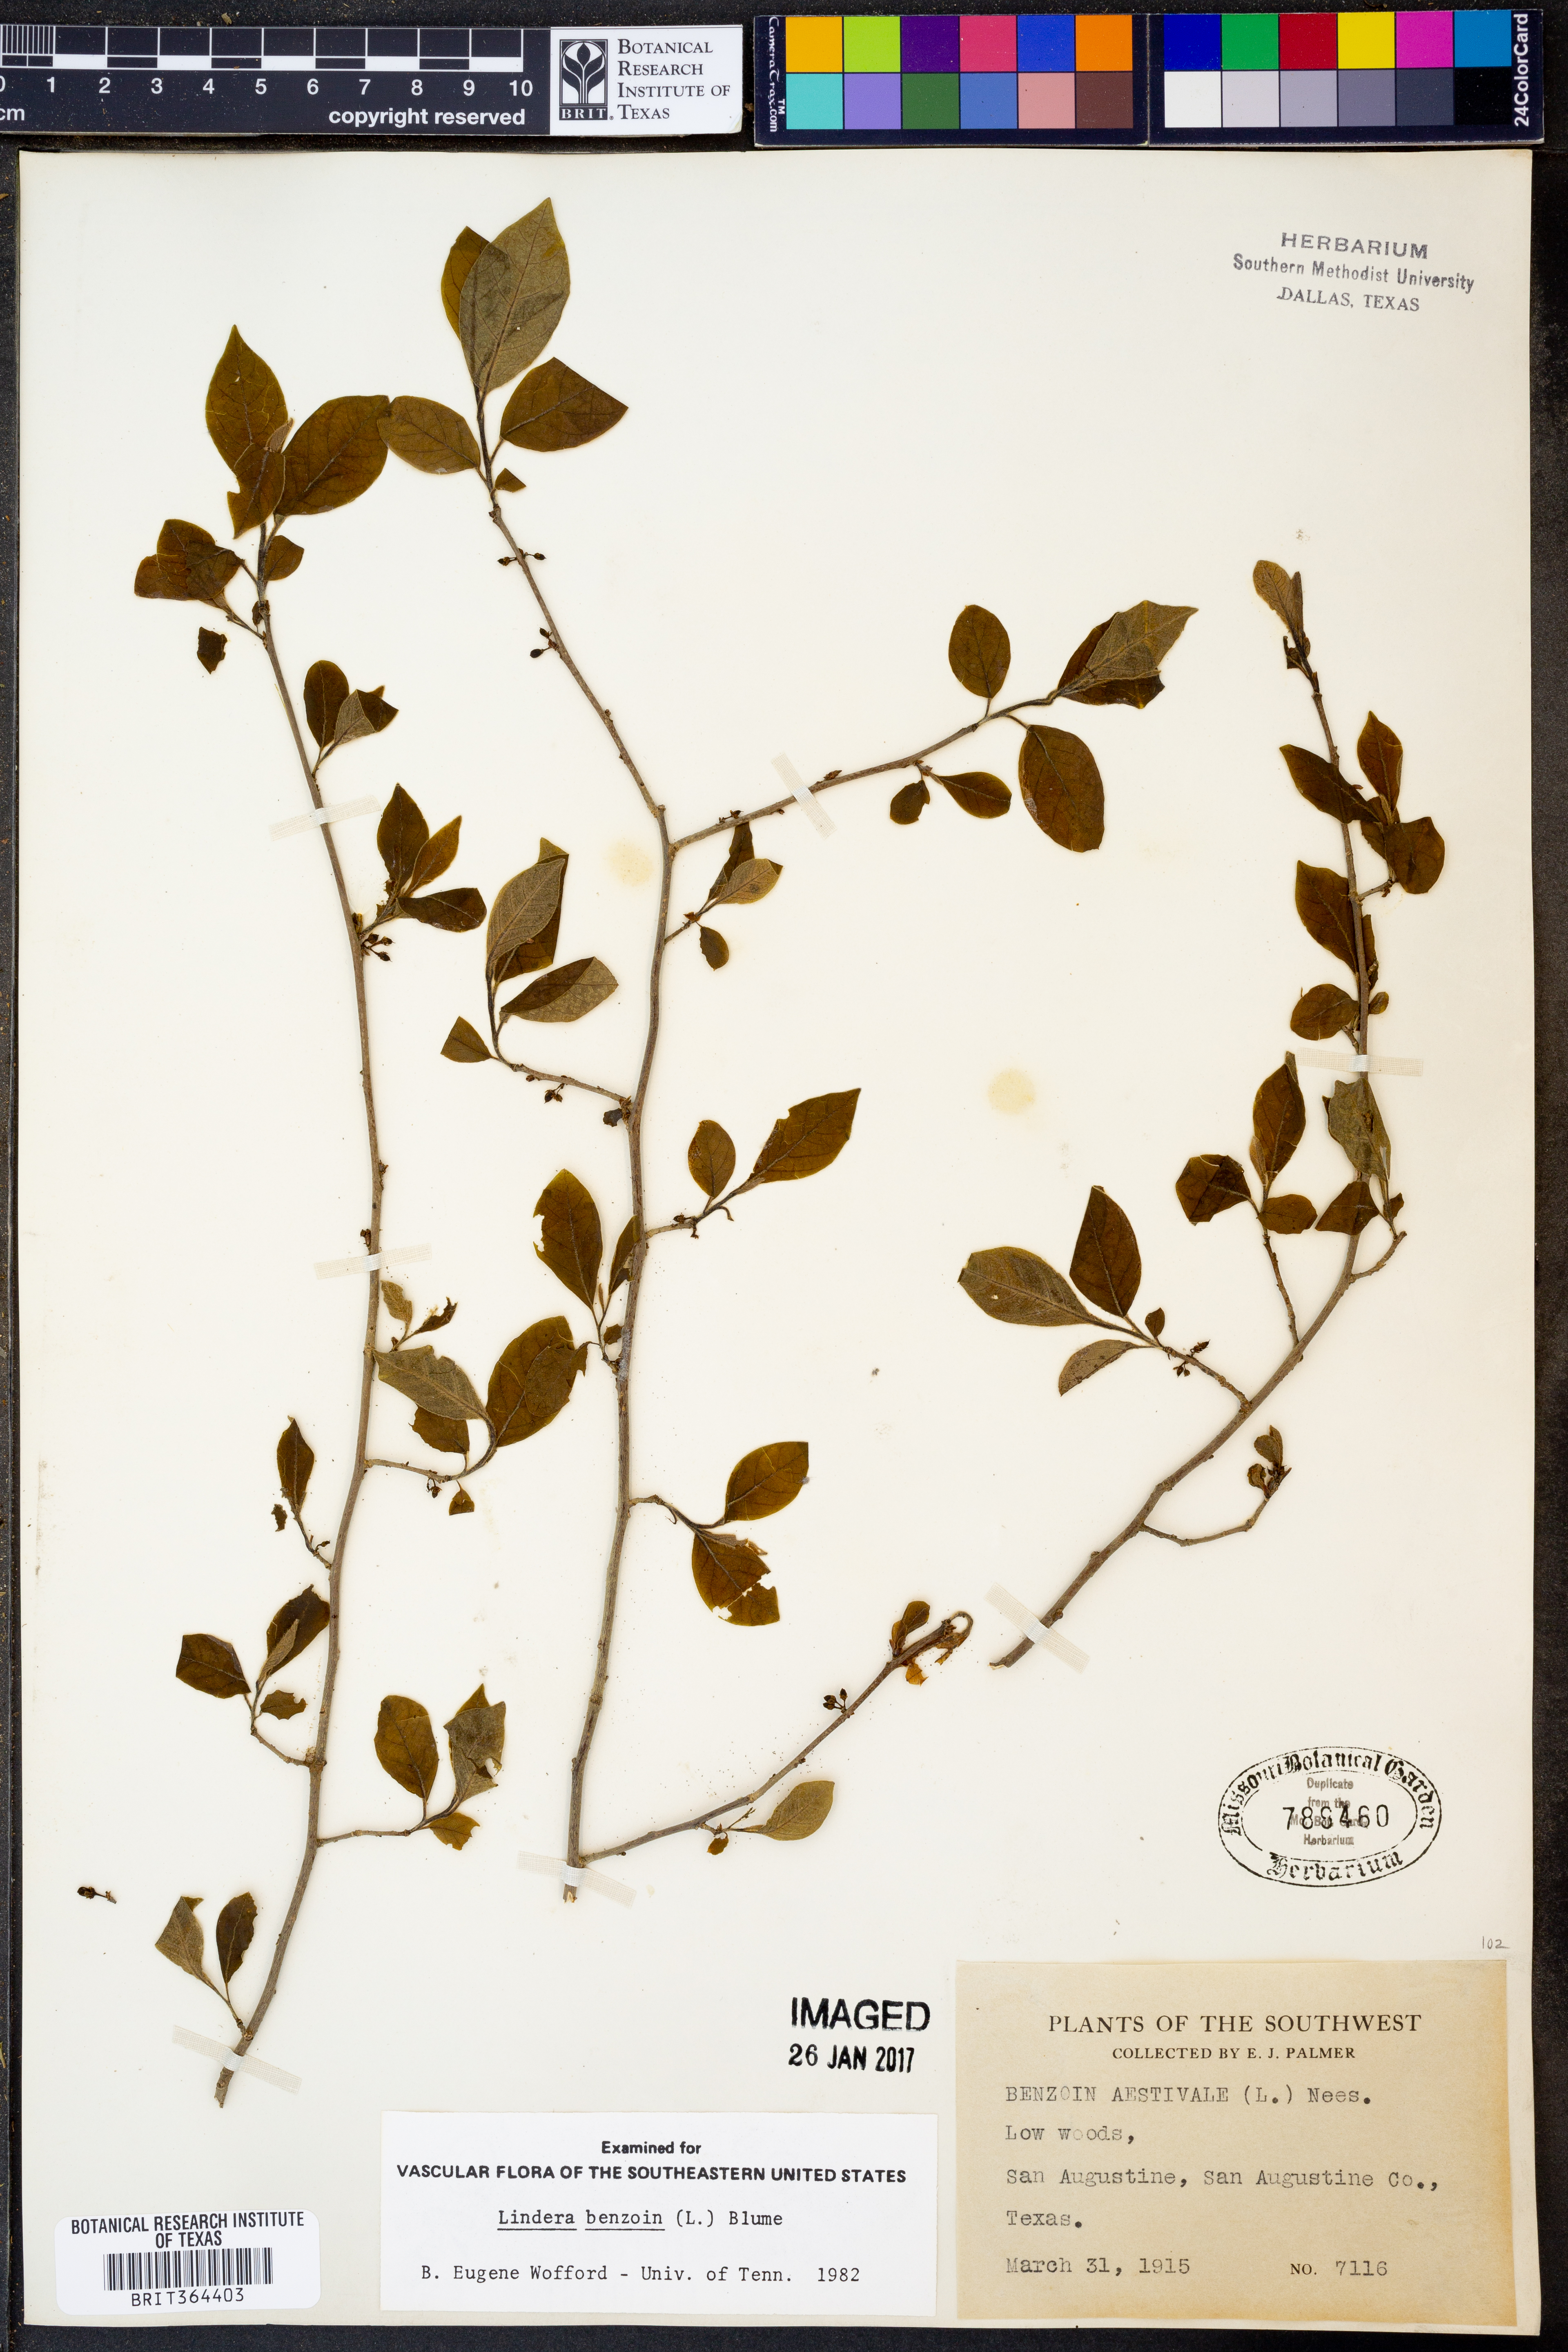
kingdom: Plantae
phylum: Tracheophyta
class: Magnoliopsida
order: Laurales
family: Lauraceae
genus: Lindera
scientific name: Lindera benzoin
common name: Spicebush
